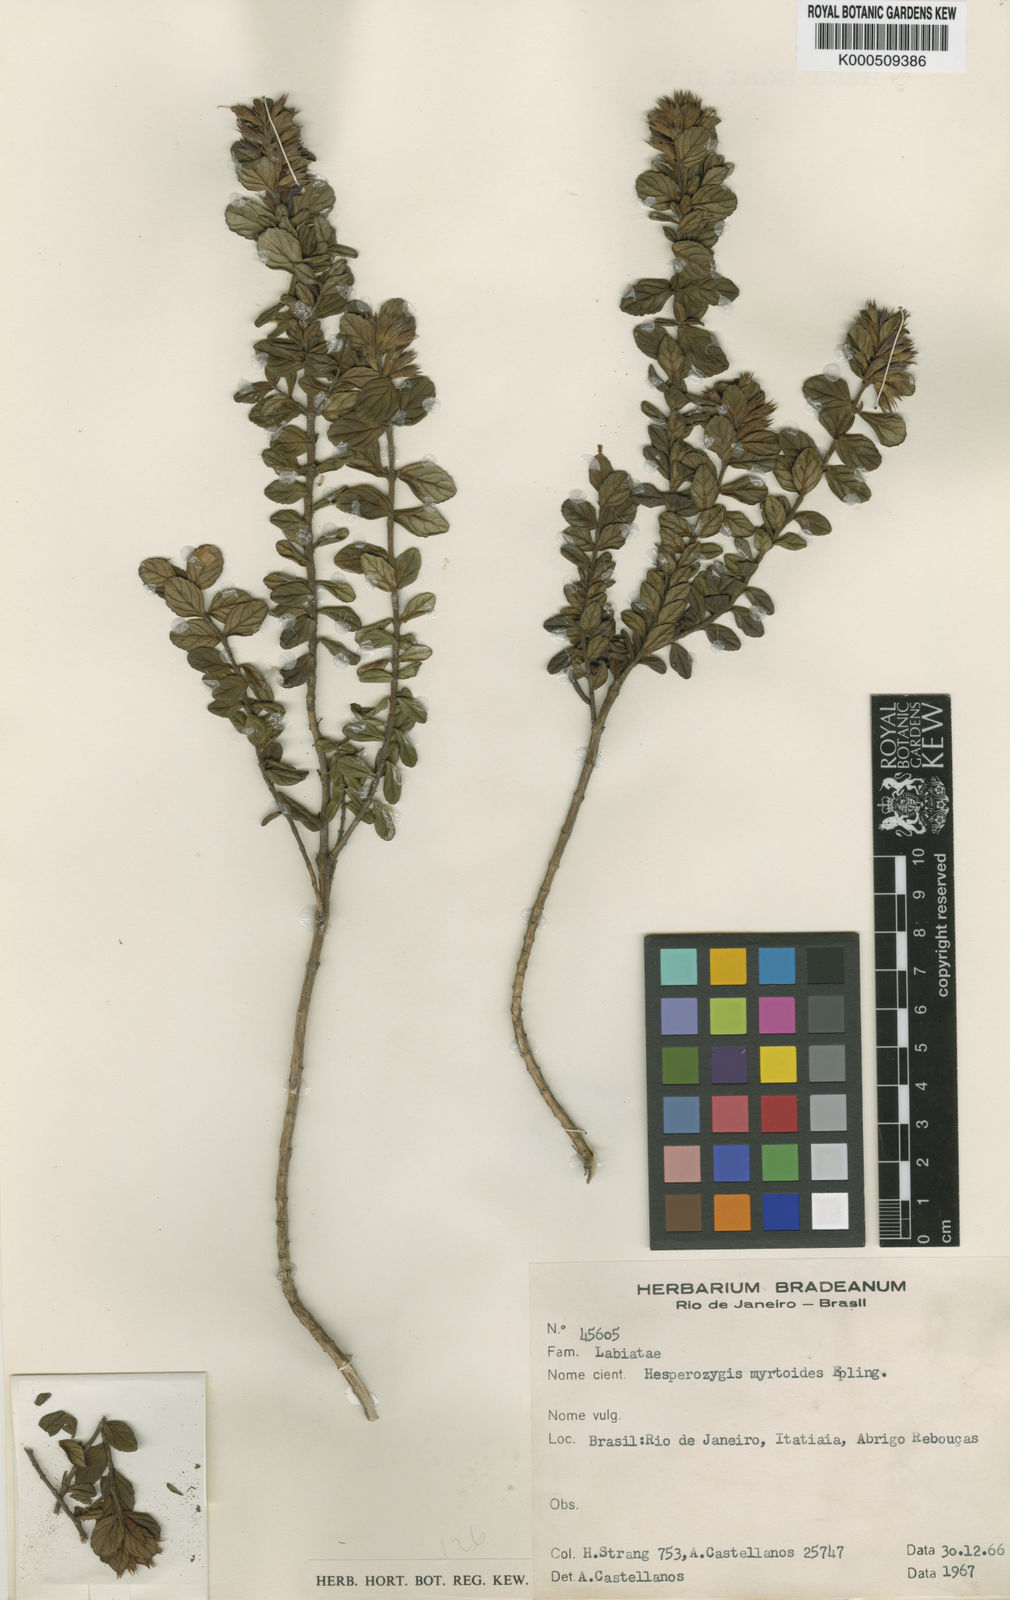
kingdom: Plantae
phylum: Tracheophyta
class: Magnoliopsida
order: Lamiales
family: Lamiaceae
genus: Hesperozygis
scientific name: Hesperozygis myrtoides
